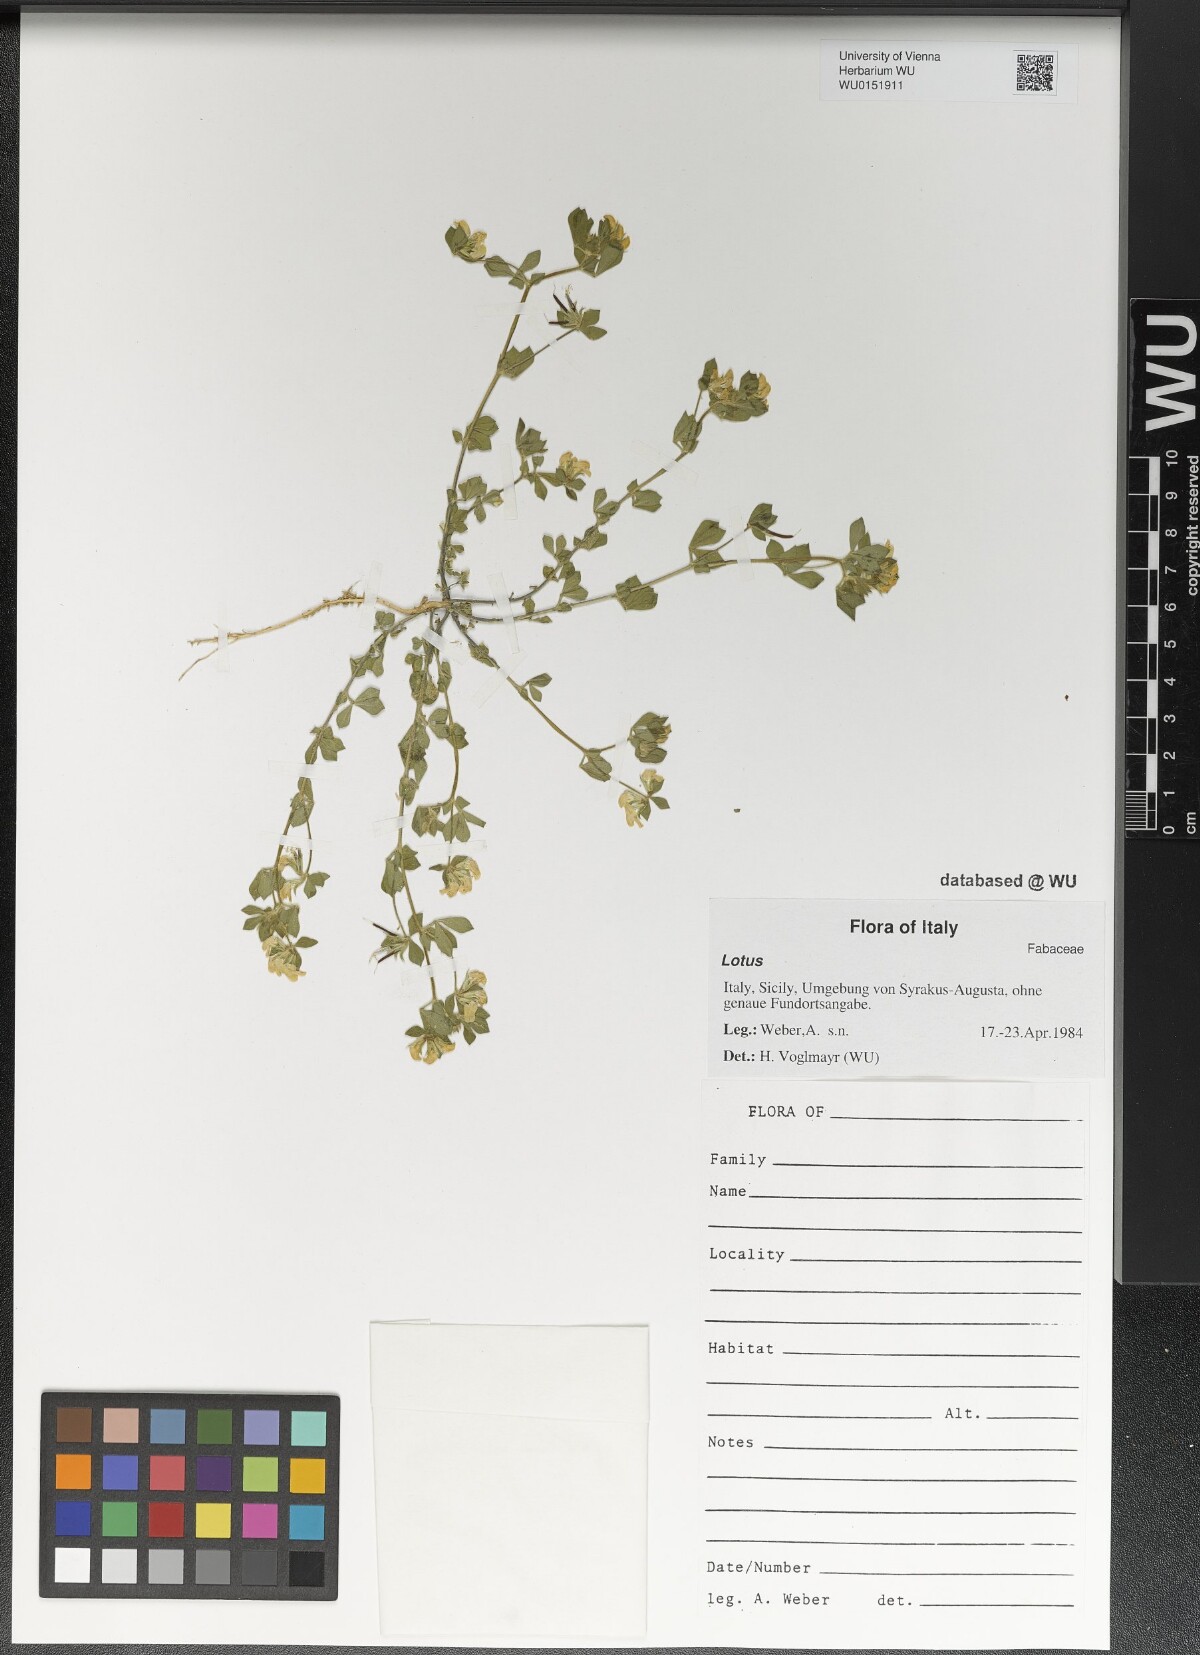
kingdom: Plantae
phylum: Tracheophyta
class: Magnoliopsida
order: Fabales
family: Fabaceae
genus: Lotus
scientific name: Lotus
